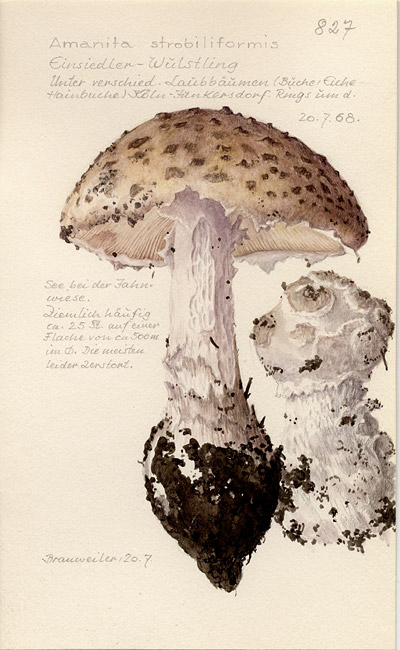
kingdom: Fungi
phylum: Basidiomycota
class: Agaricomycetes
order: Agaricales
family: Amanitaceae
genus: Amanita
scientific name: Amanita
